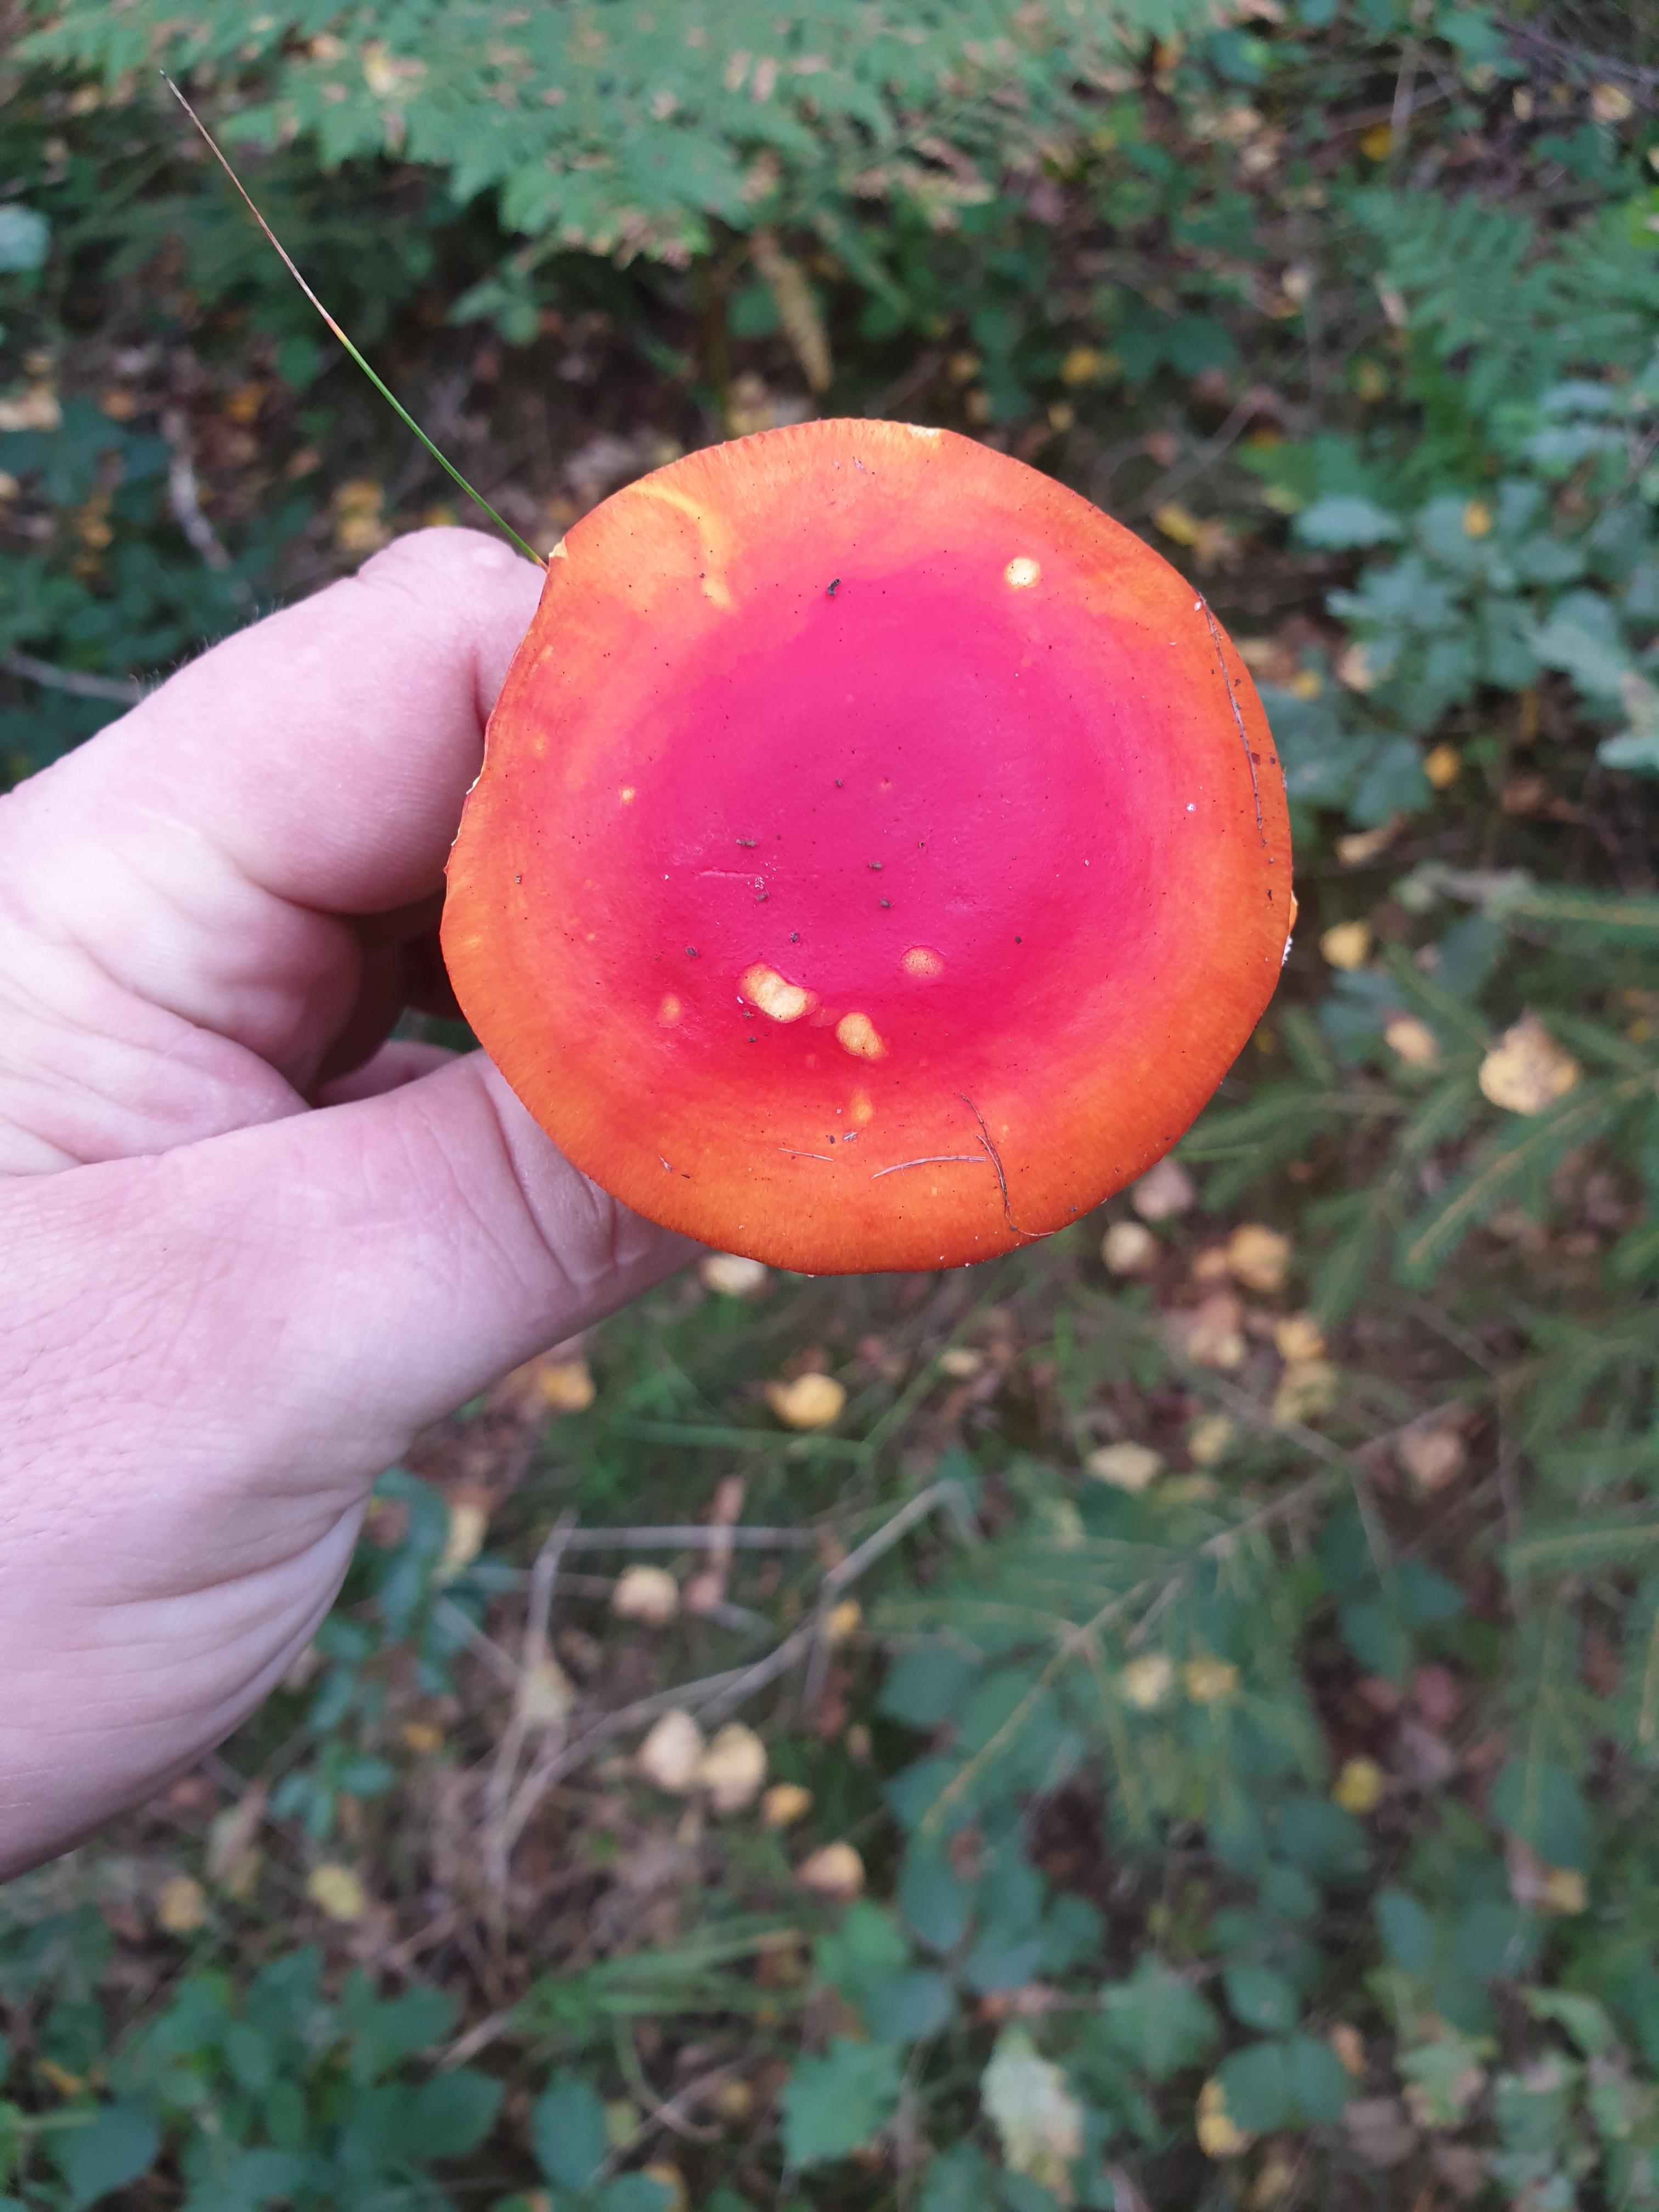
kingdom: Fungi
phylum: Basidiomycota
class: Agaricomycetes
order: Agaricales
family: Amanitaceae
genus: Amanita
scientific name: Amanita muscaria
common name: rød fluesvamp
